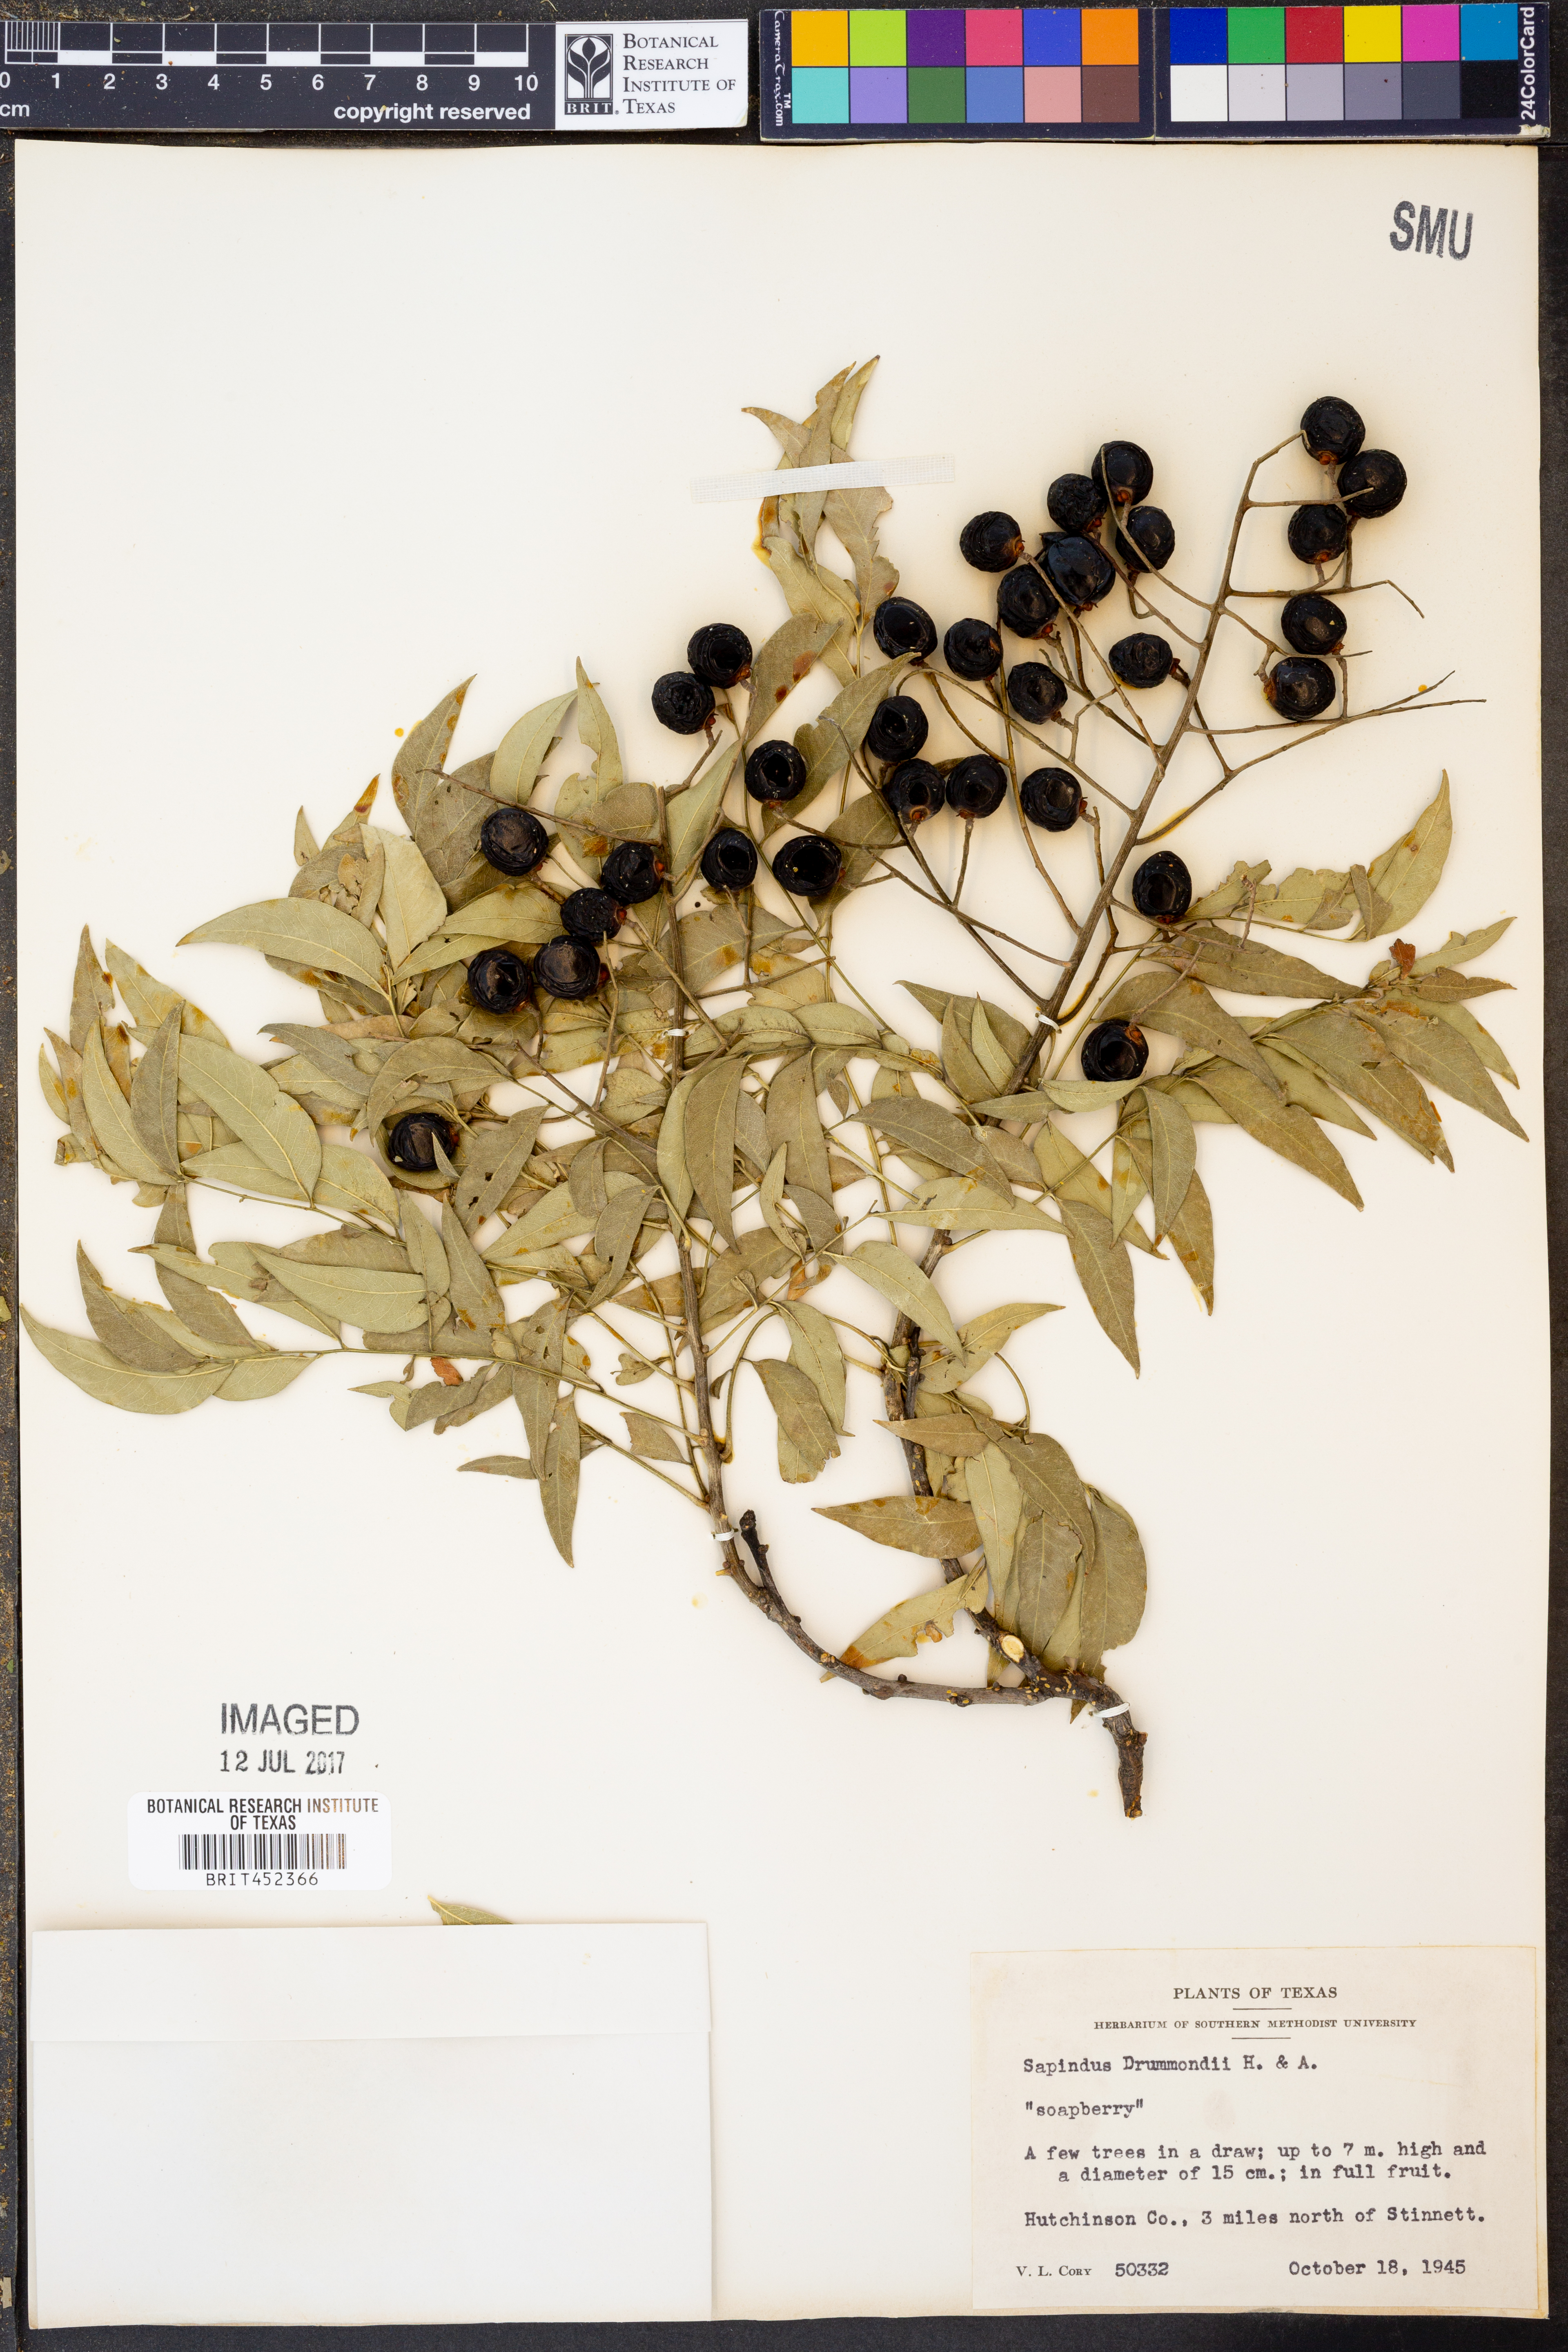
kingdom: Plantae
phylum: Tracheophyta
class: Magnoliopsida
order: Sapindales
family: Sapindaceae
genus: Sapindus
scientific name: Sapindus drummondii
